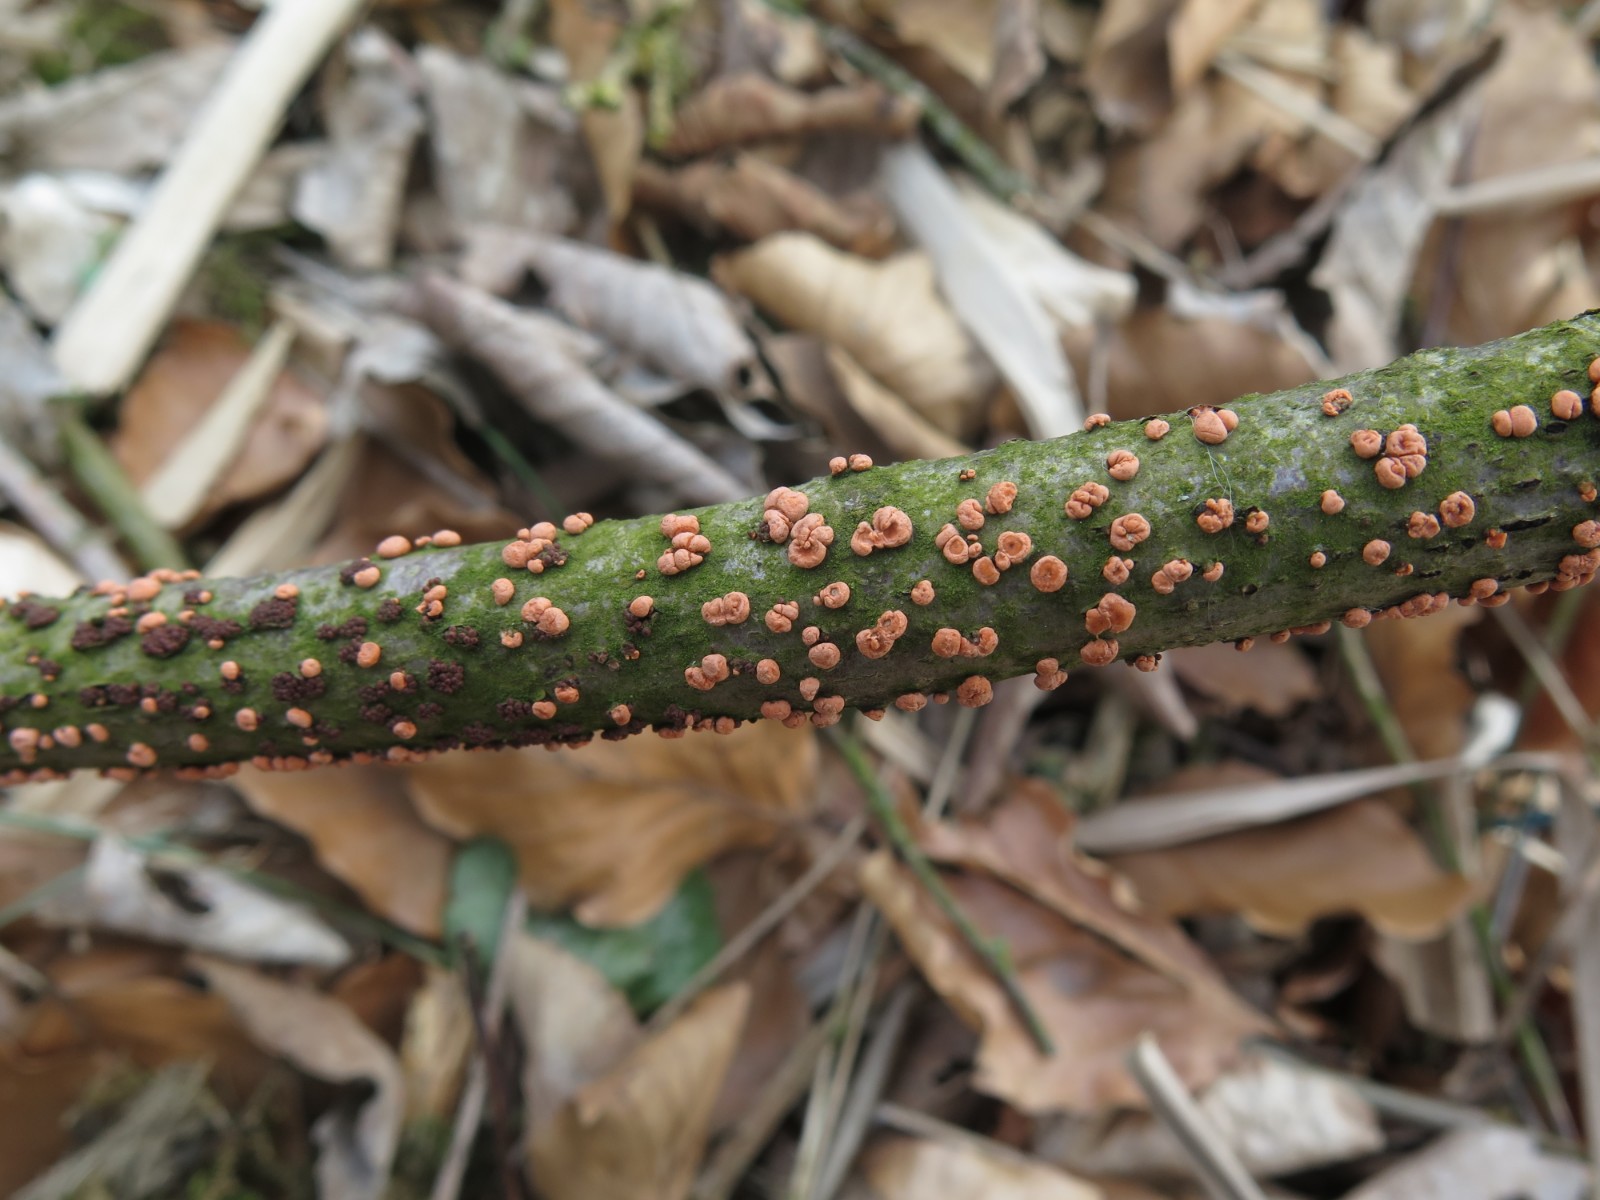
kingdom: Fungi
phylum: Ascomycota
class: Sordariomycetes
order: Hypocreales
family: Nectriaceae
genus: Nectria
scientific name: Nectria cinnabarina
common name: almindelig cinnobersvamp
